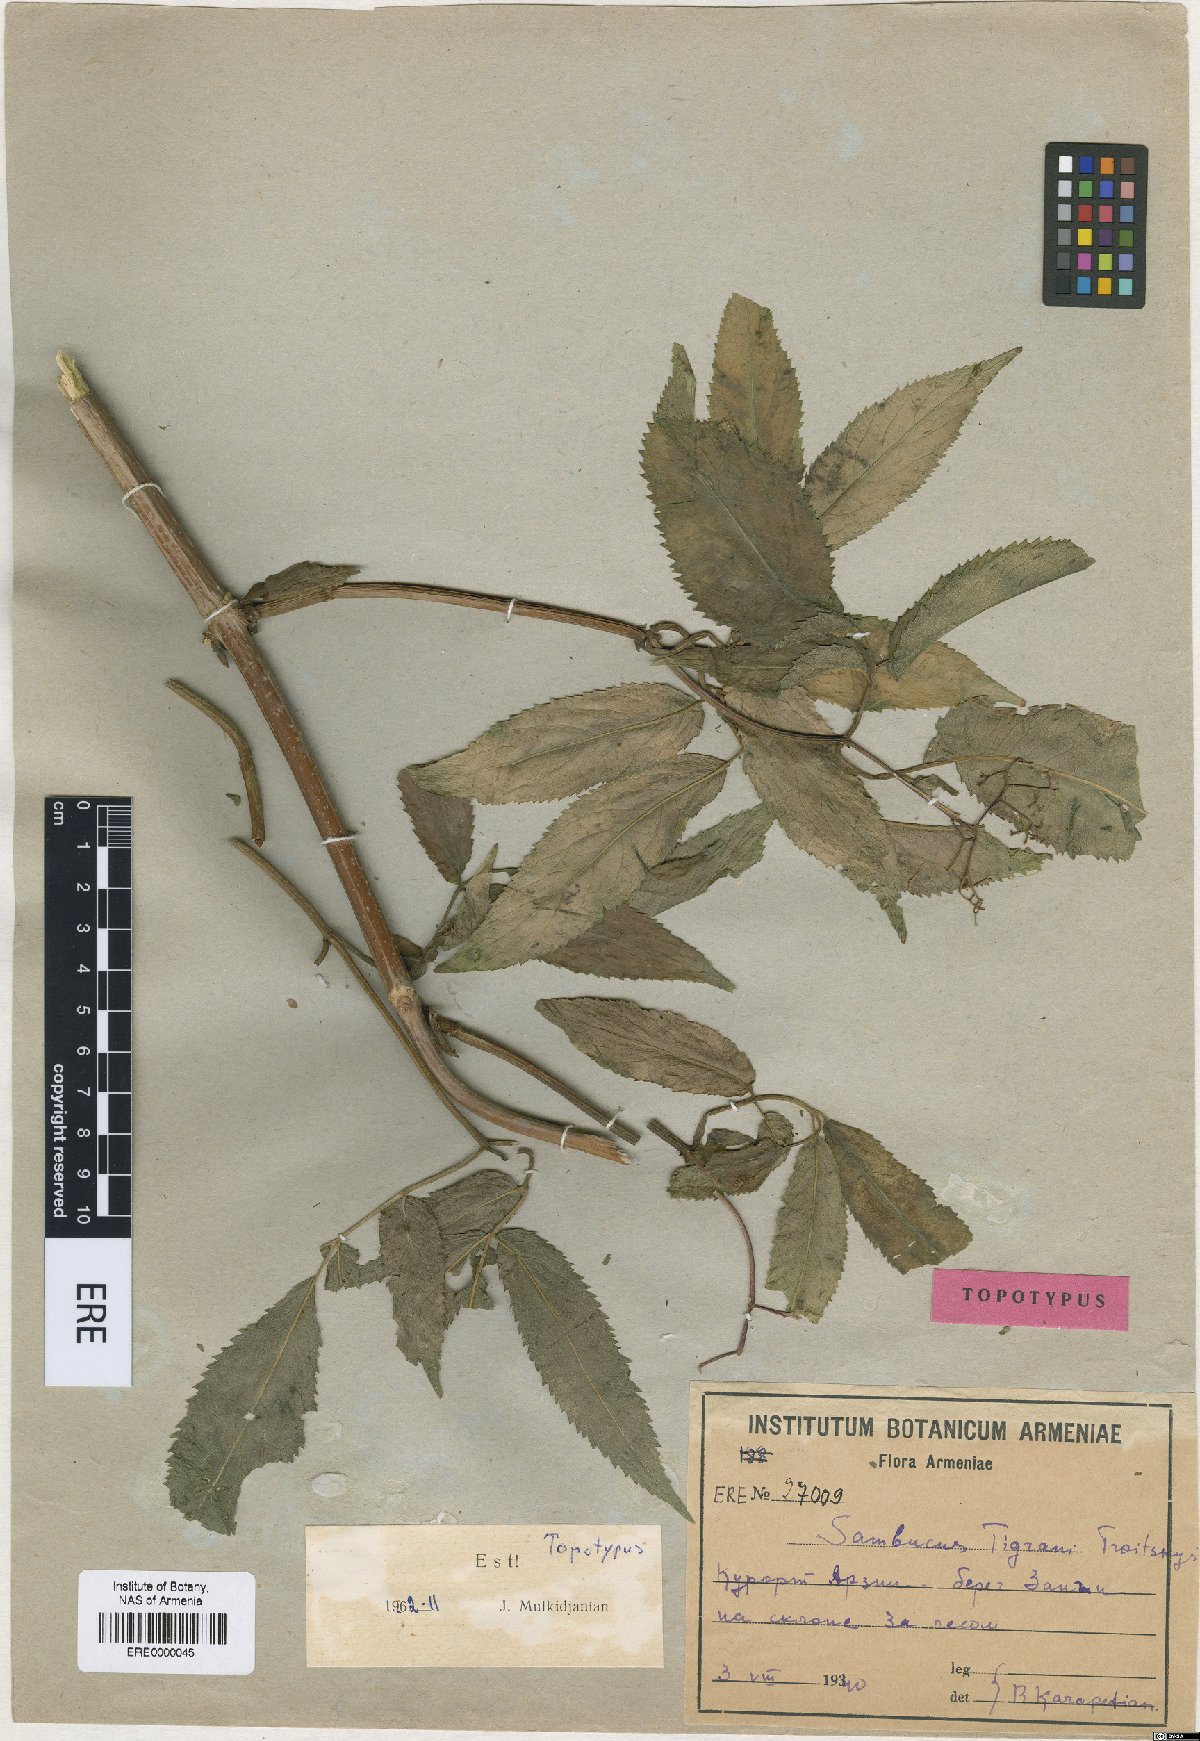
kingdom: Plantae
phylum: Tracheophyta
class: Magnoliopsida
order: Dipsacales
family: Viburnaceae
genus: Sambucus
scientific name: Sambucus tigranii
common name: Tigran's elder
